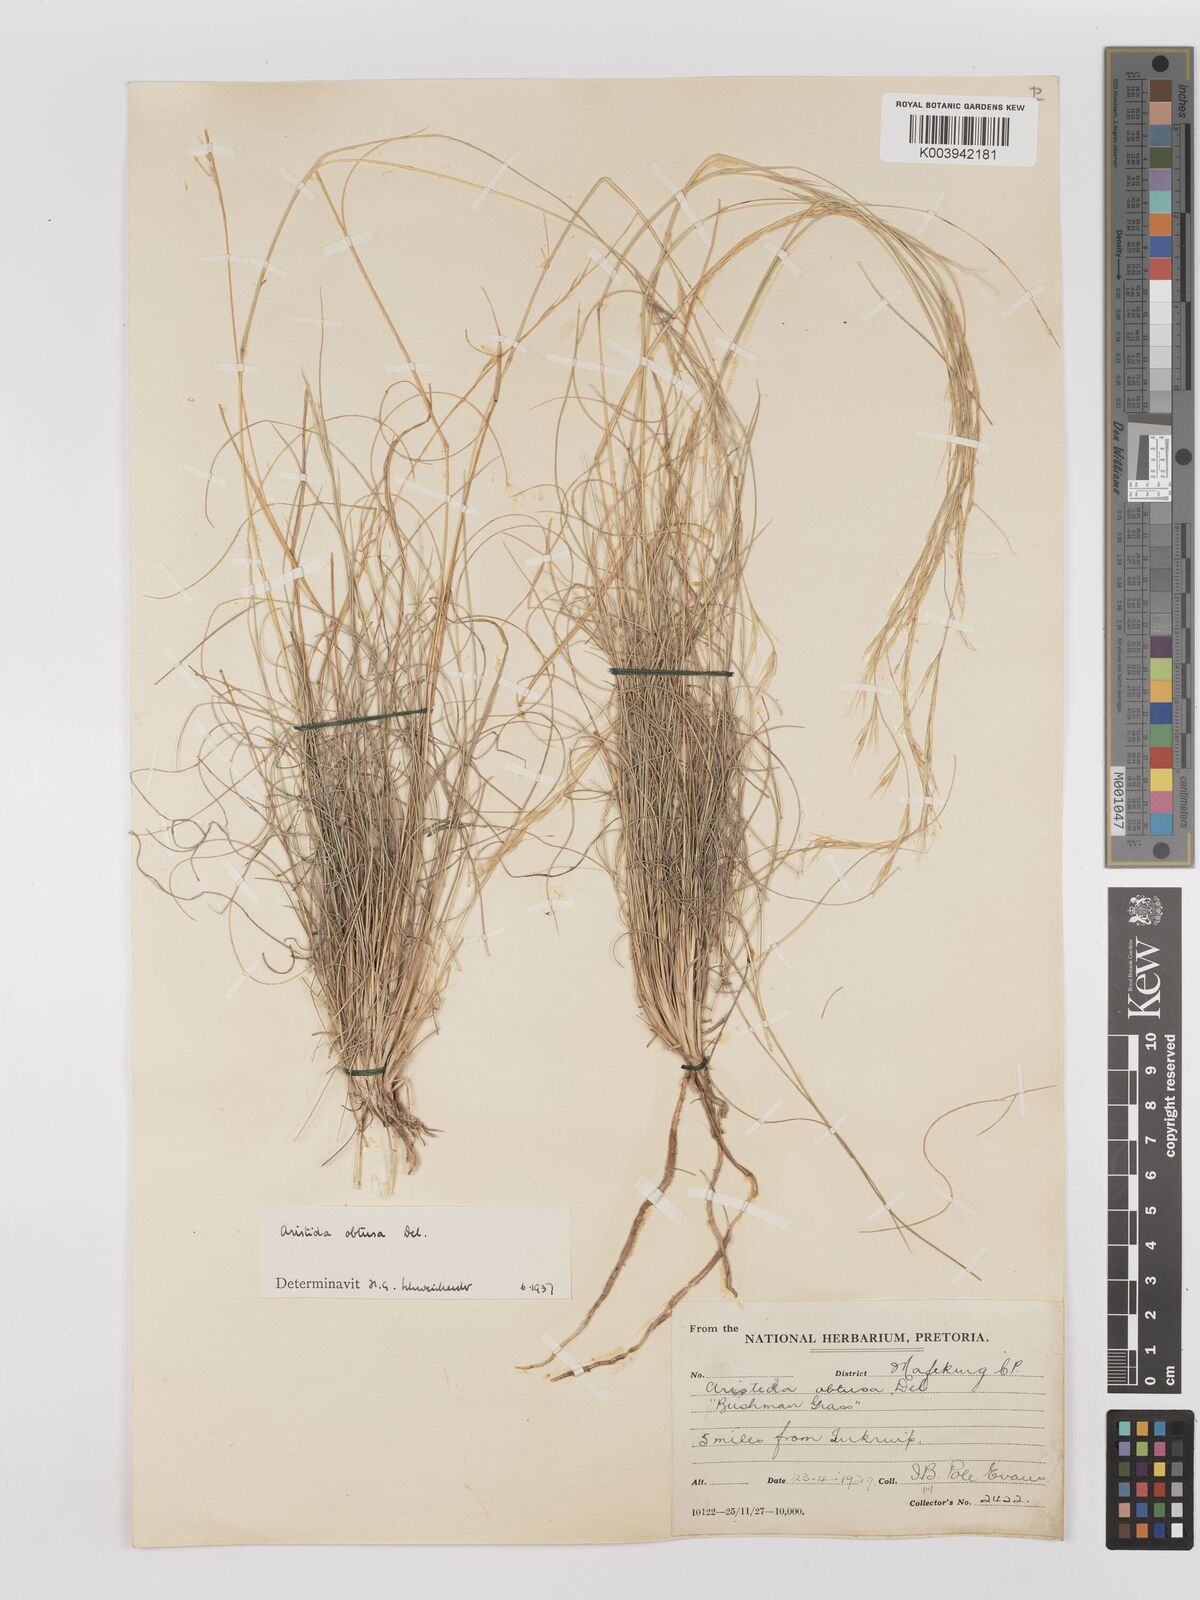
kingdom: Plantae
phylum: Tracheophyta
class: Liliopsida
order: Poales
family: Poaceae
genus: Stipagrostis
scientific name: Stipagrostis obtusa
